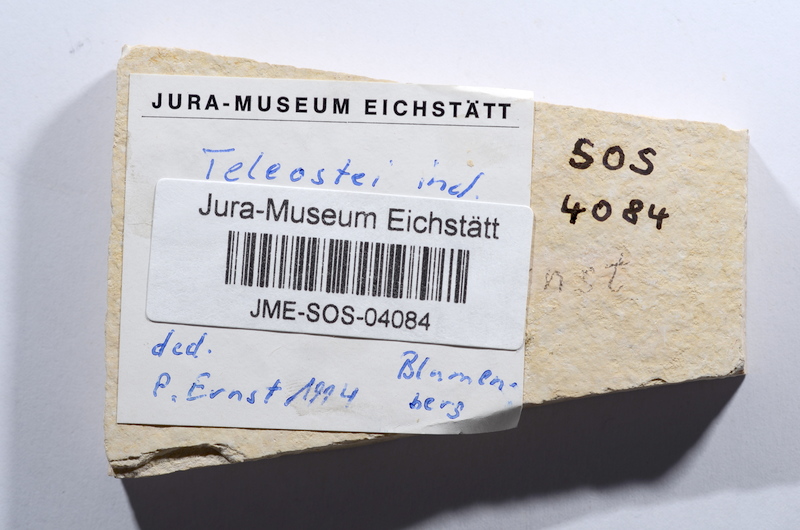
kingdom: Animalia
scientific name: Animalia
